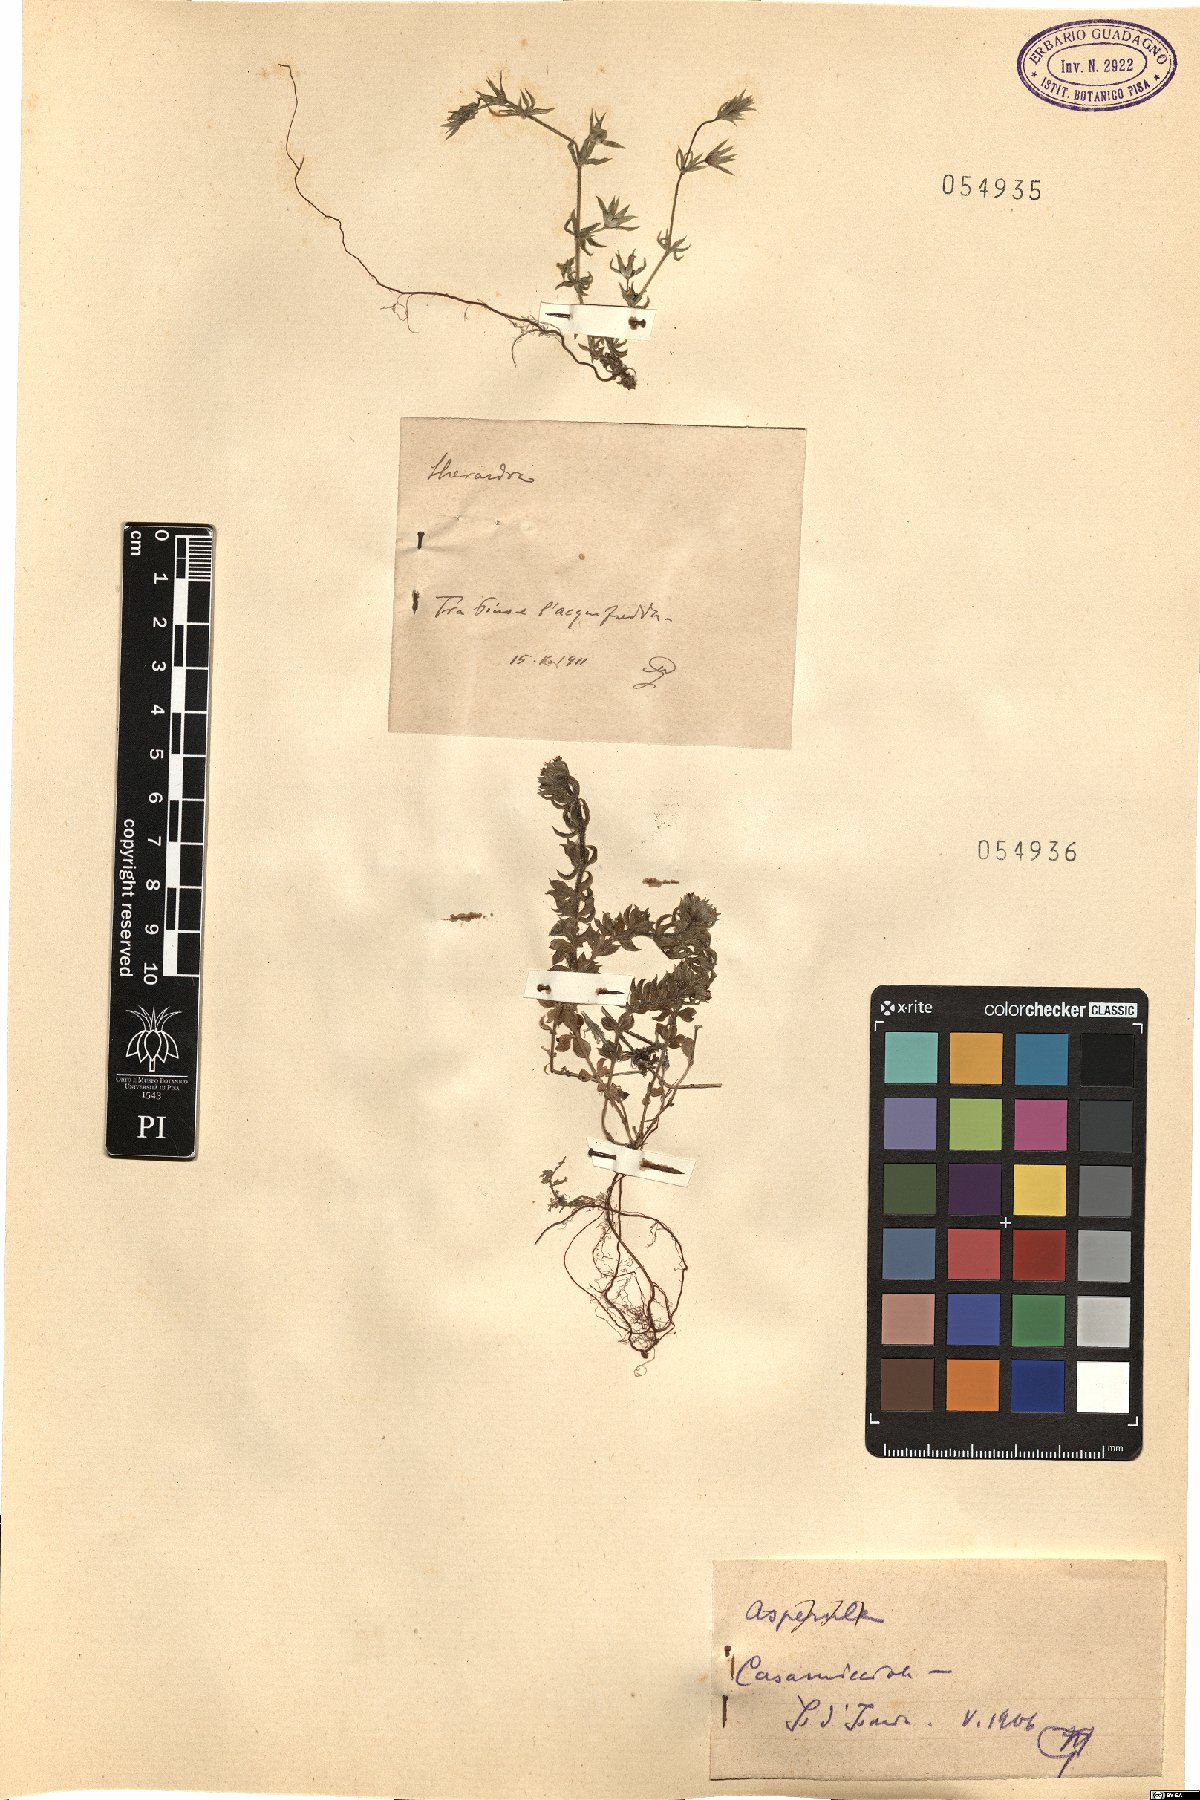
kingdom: Plantae
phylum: Tracheophyta
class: Magnoliopsida
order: Gentianales
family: Rubiaceae
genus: Sherardia
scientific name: Sherardia
